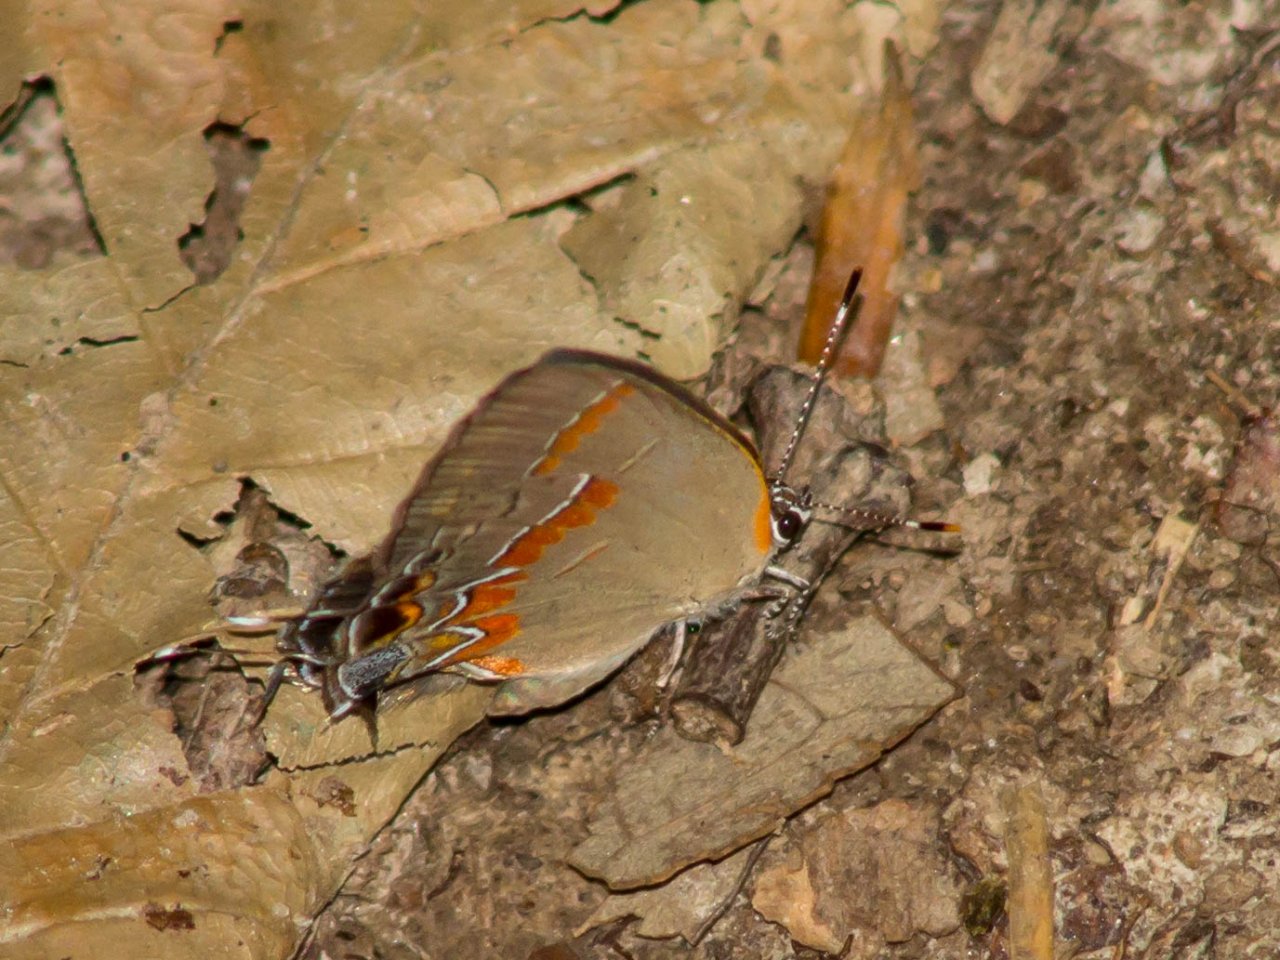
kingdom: Animalia
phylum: Arthropoda
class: Insecta
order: Lepidoptera
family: Lycaenidae
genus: Calycopis
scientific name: Calycopis cecrops
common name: Red-banded Hairstreak
